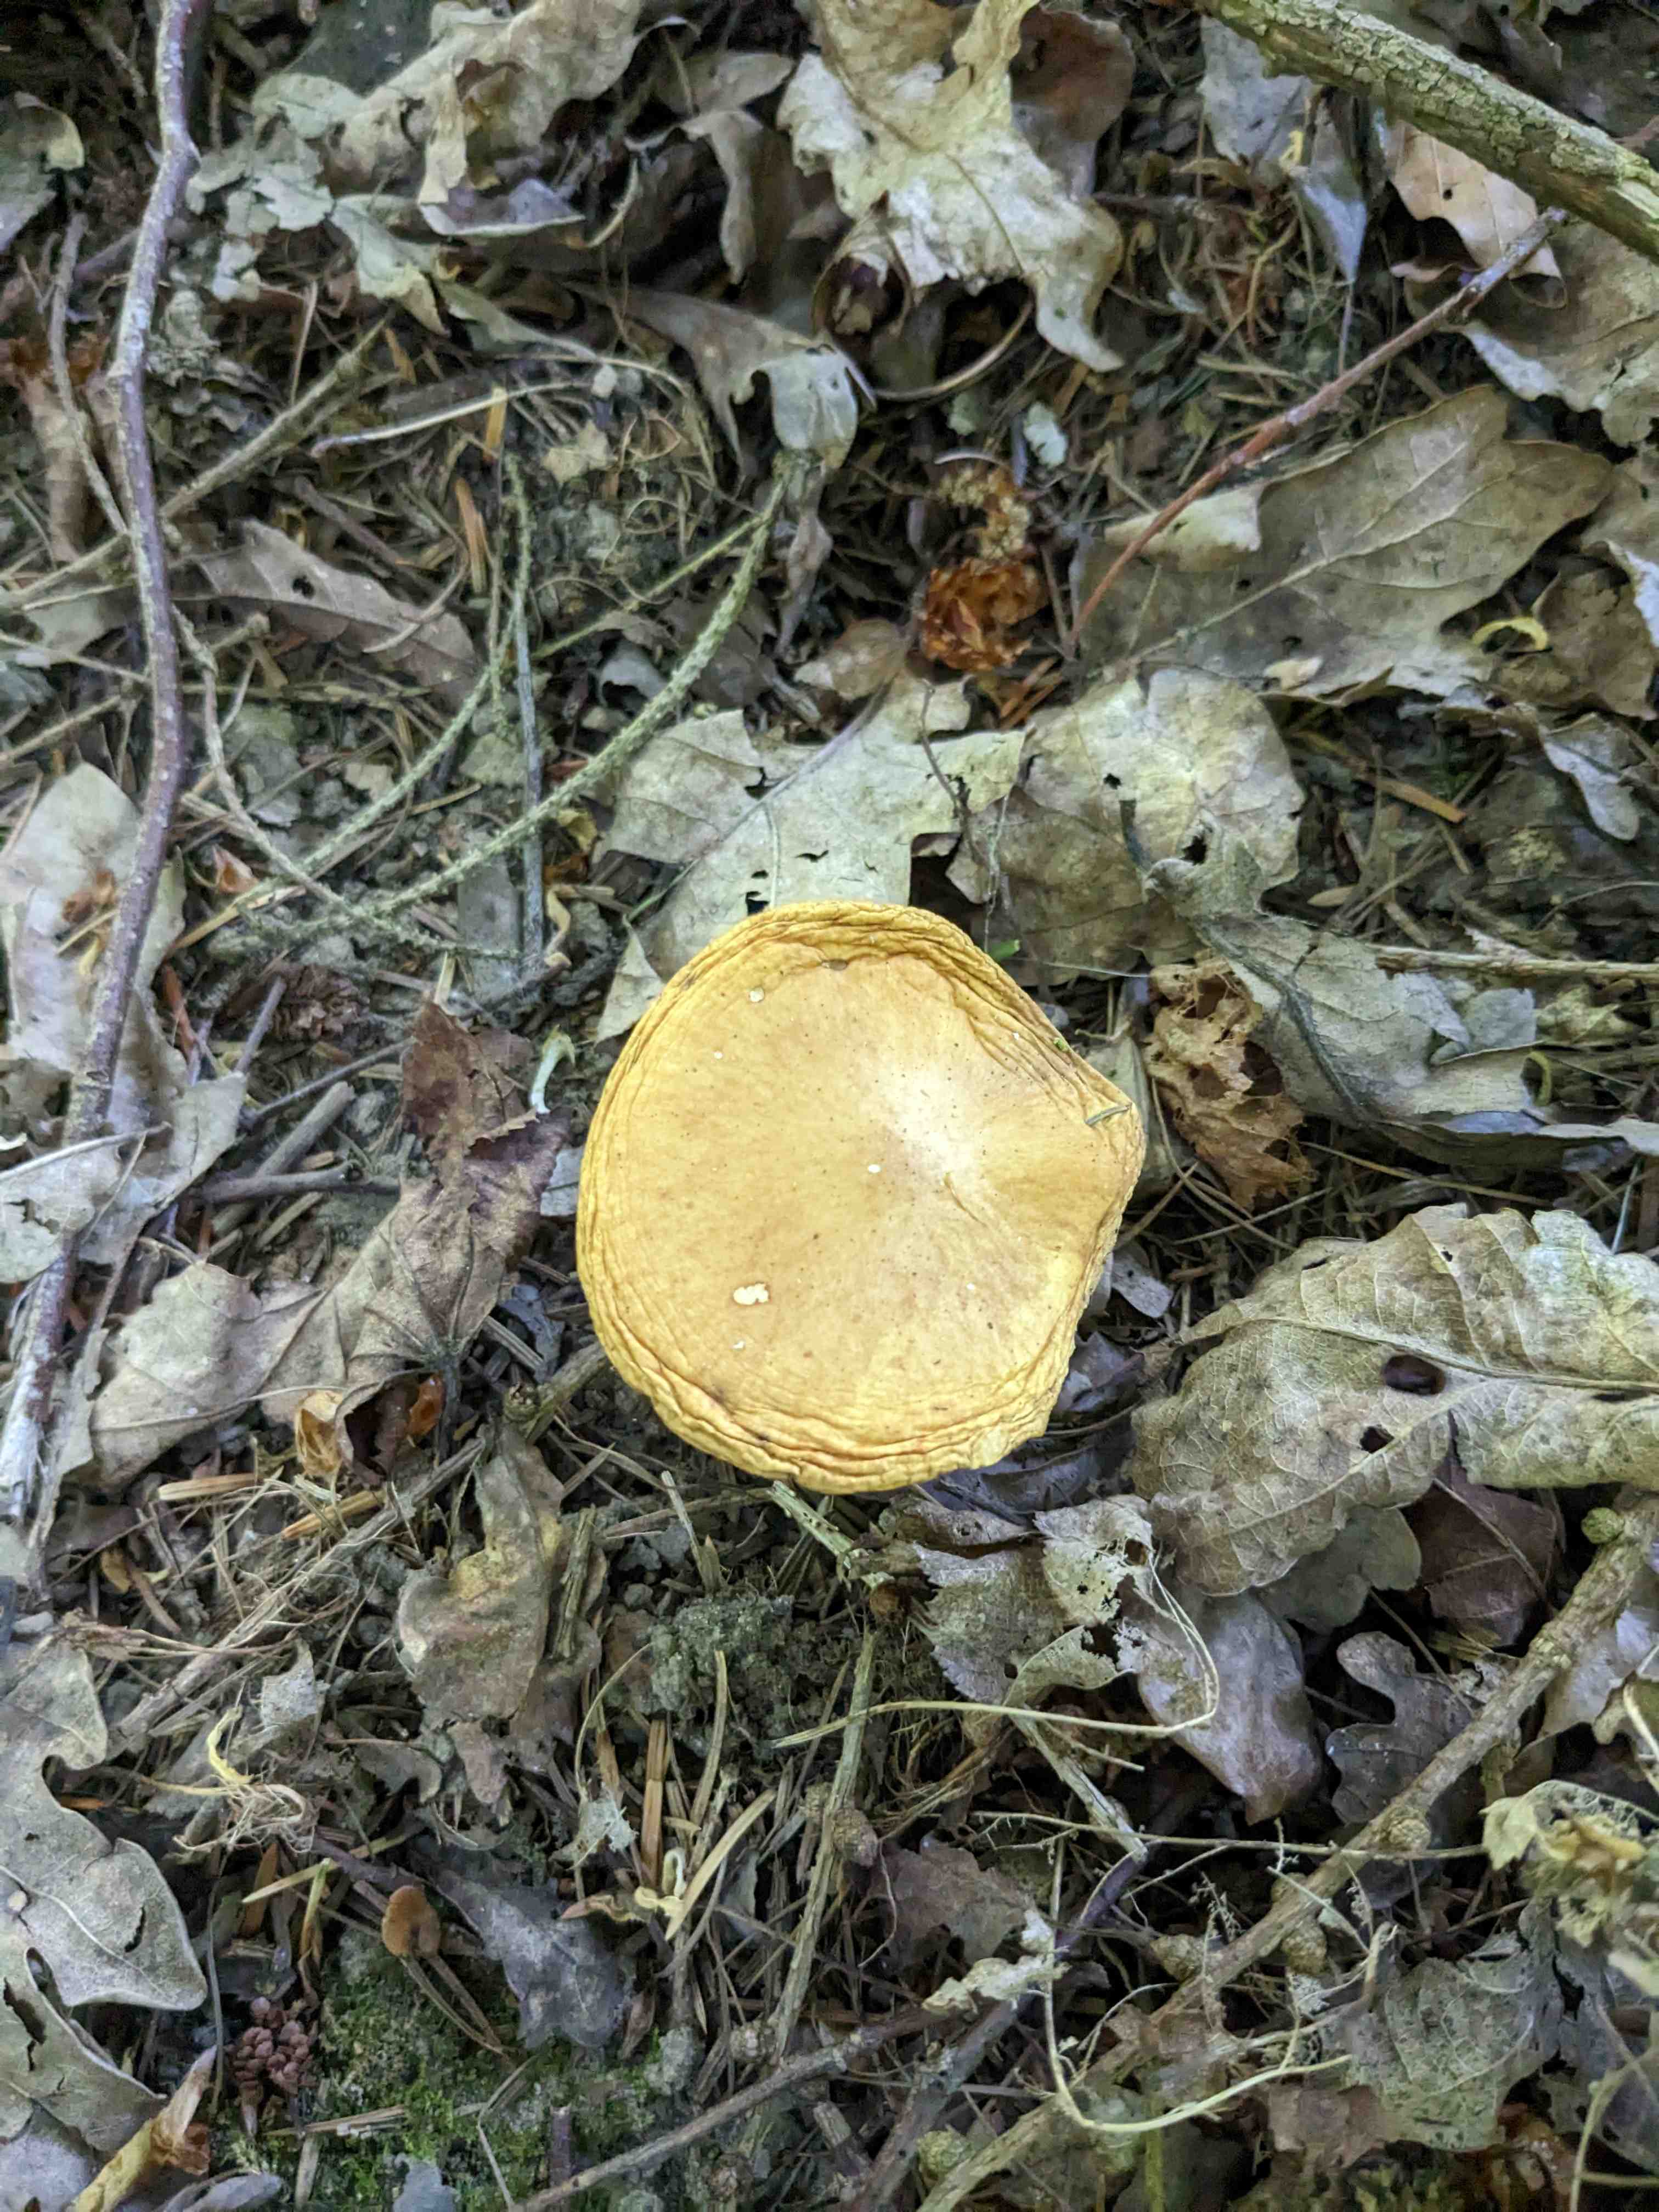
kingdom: Fungi
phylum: Basidiomycota
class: Agaricomycetes
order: Boletales
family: Suillaceae
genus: Suillus
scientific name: Suillus grevillei
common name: lærke-slimrørhat
